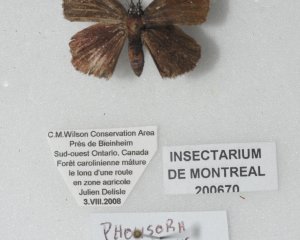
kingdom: Animalia
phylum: Arthropoda
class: Insecta
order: Lepidoptera
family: Hesperiidae
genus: Pholisora
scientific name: Pholisora catullus
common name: Common Sootywing
